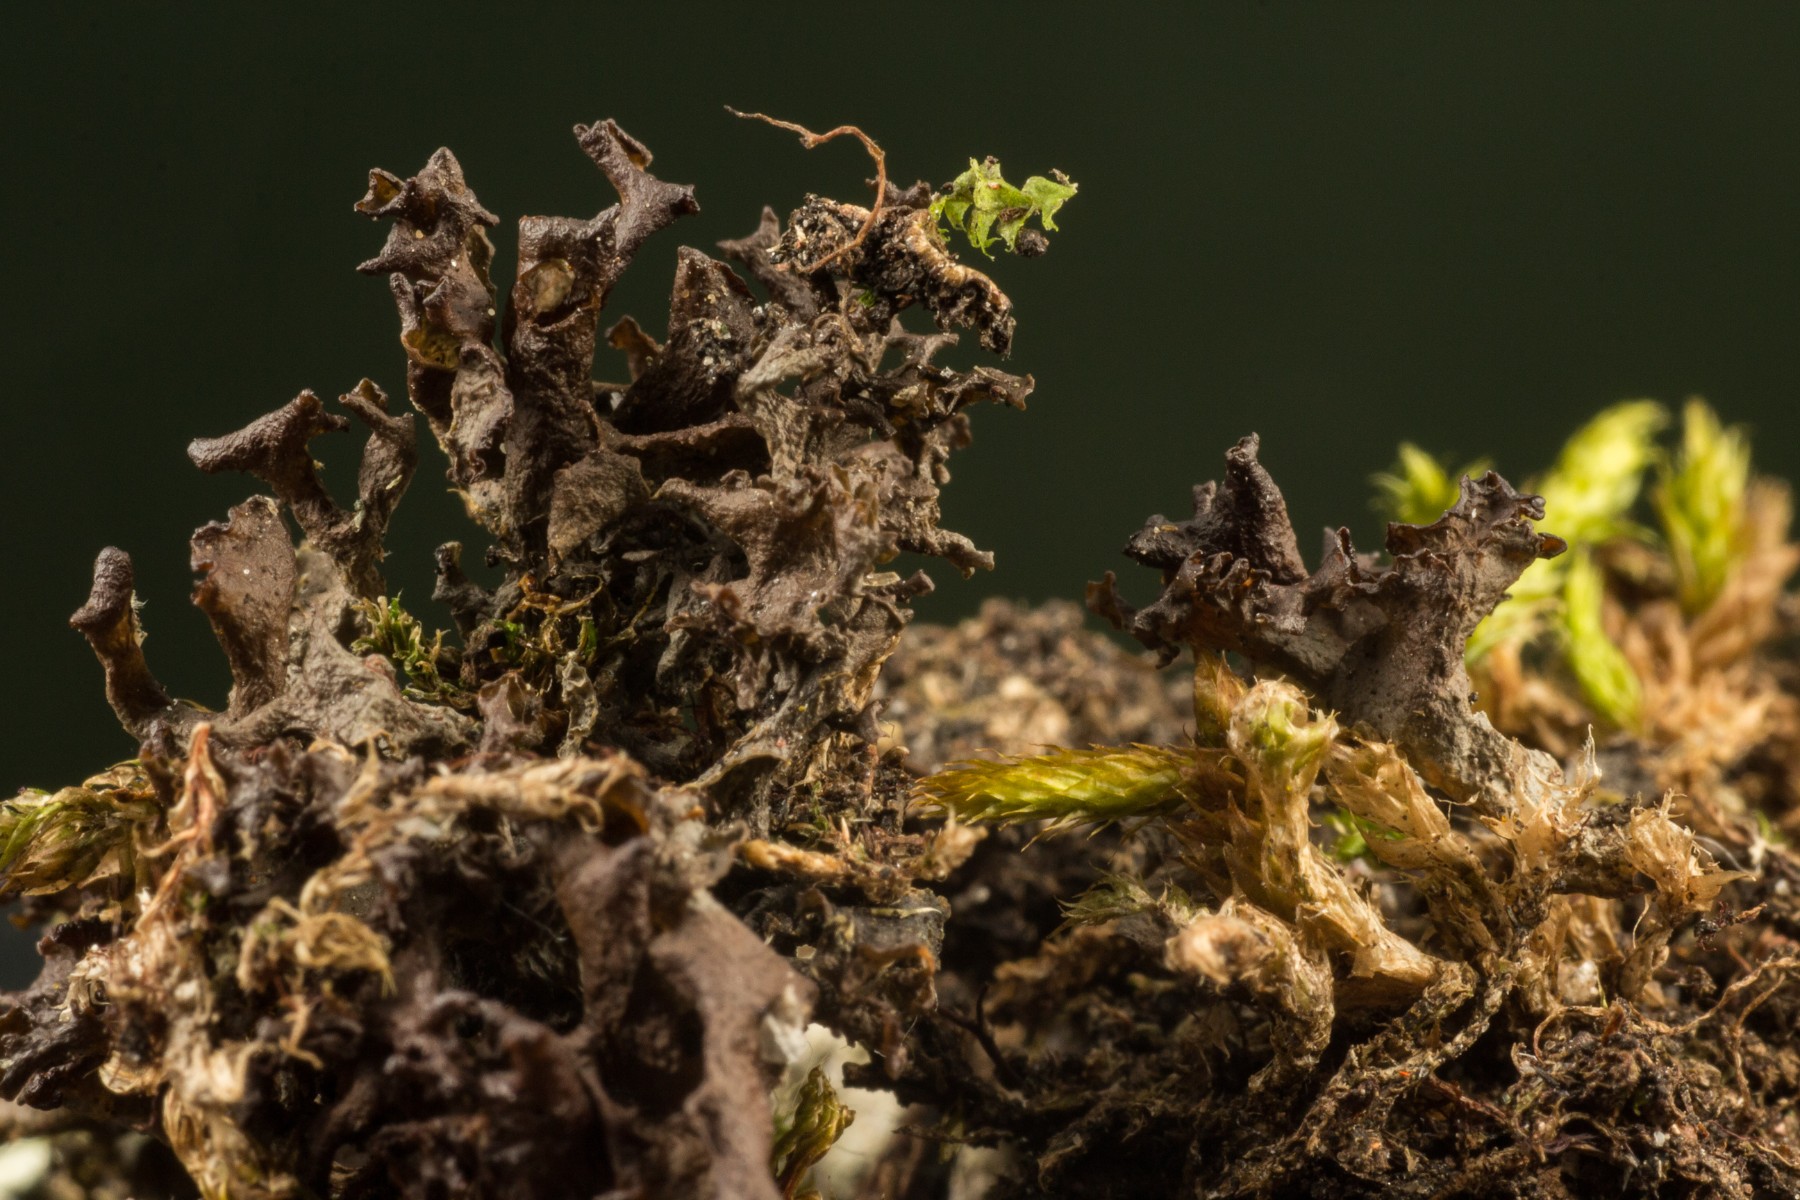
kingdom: Fungi
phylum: Ascomycota
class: Lecanoromycetes
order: Peltigerales
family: Collemataceae
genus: Scytinium
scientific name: Scytinium palmatum
